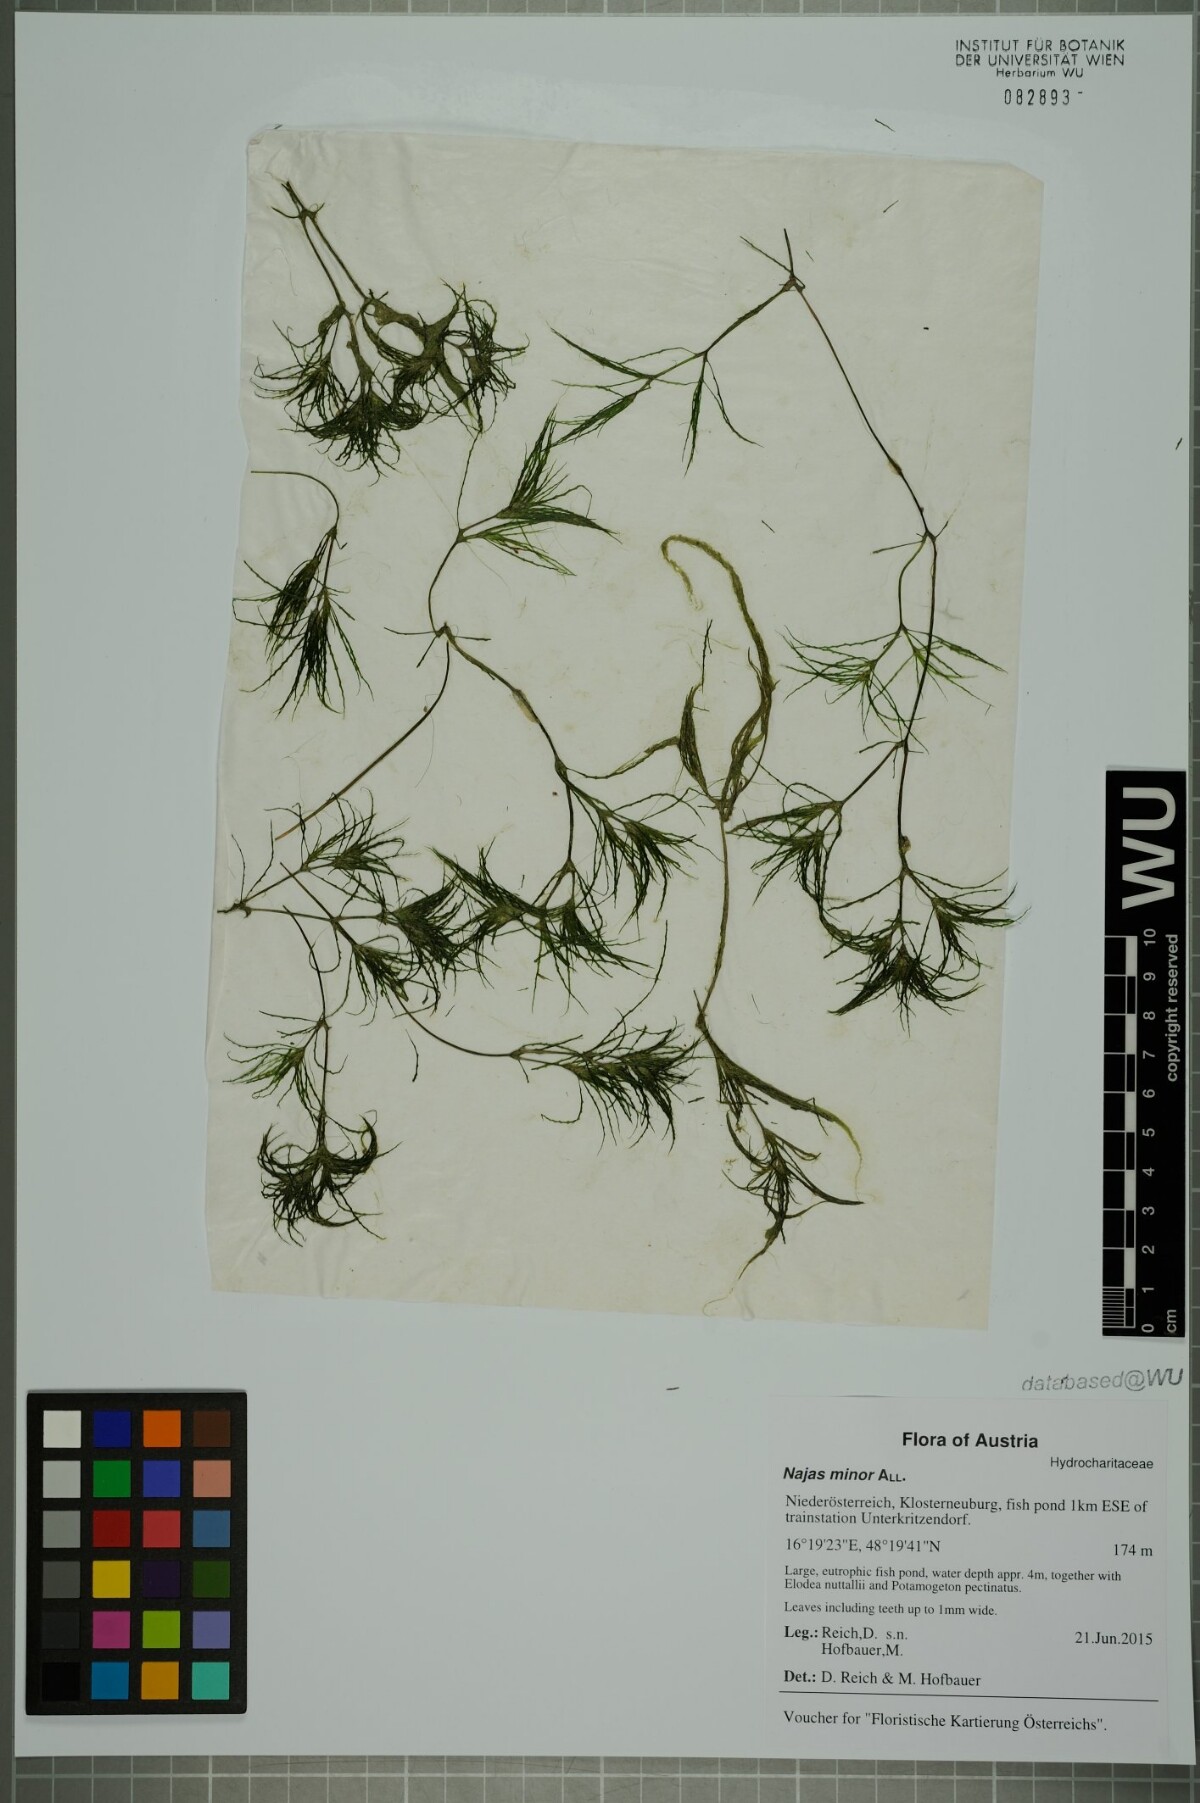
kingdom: Plantae
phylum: Tracheophyta
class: Liliopsida
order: Alismatales
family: Hydrocharitaceae
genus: Najas
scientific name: Najas minor
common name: Brittle naiad
